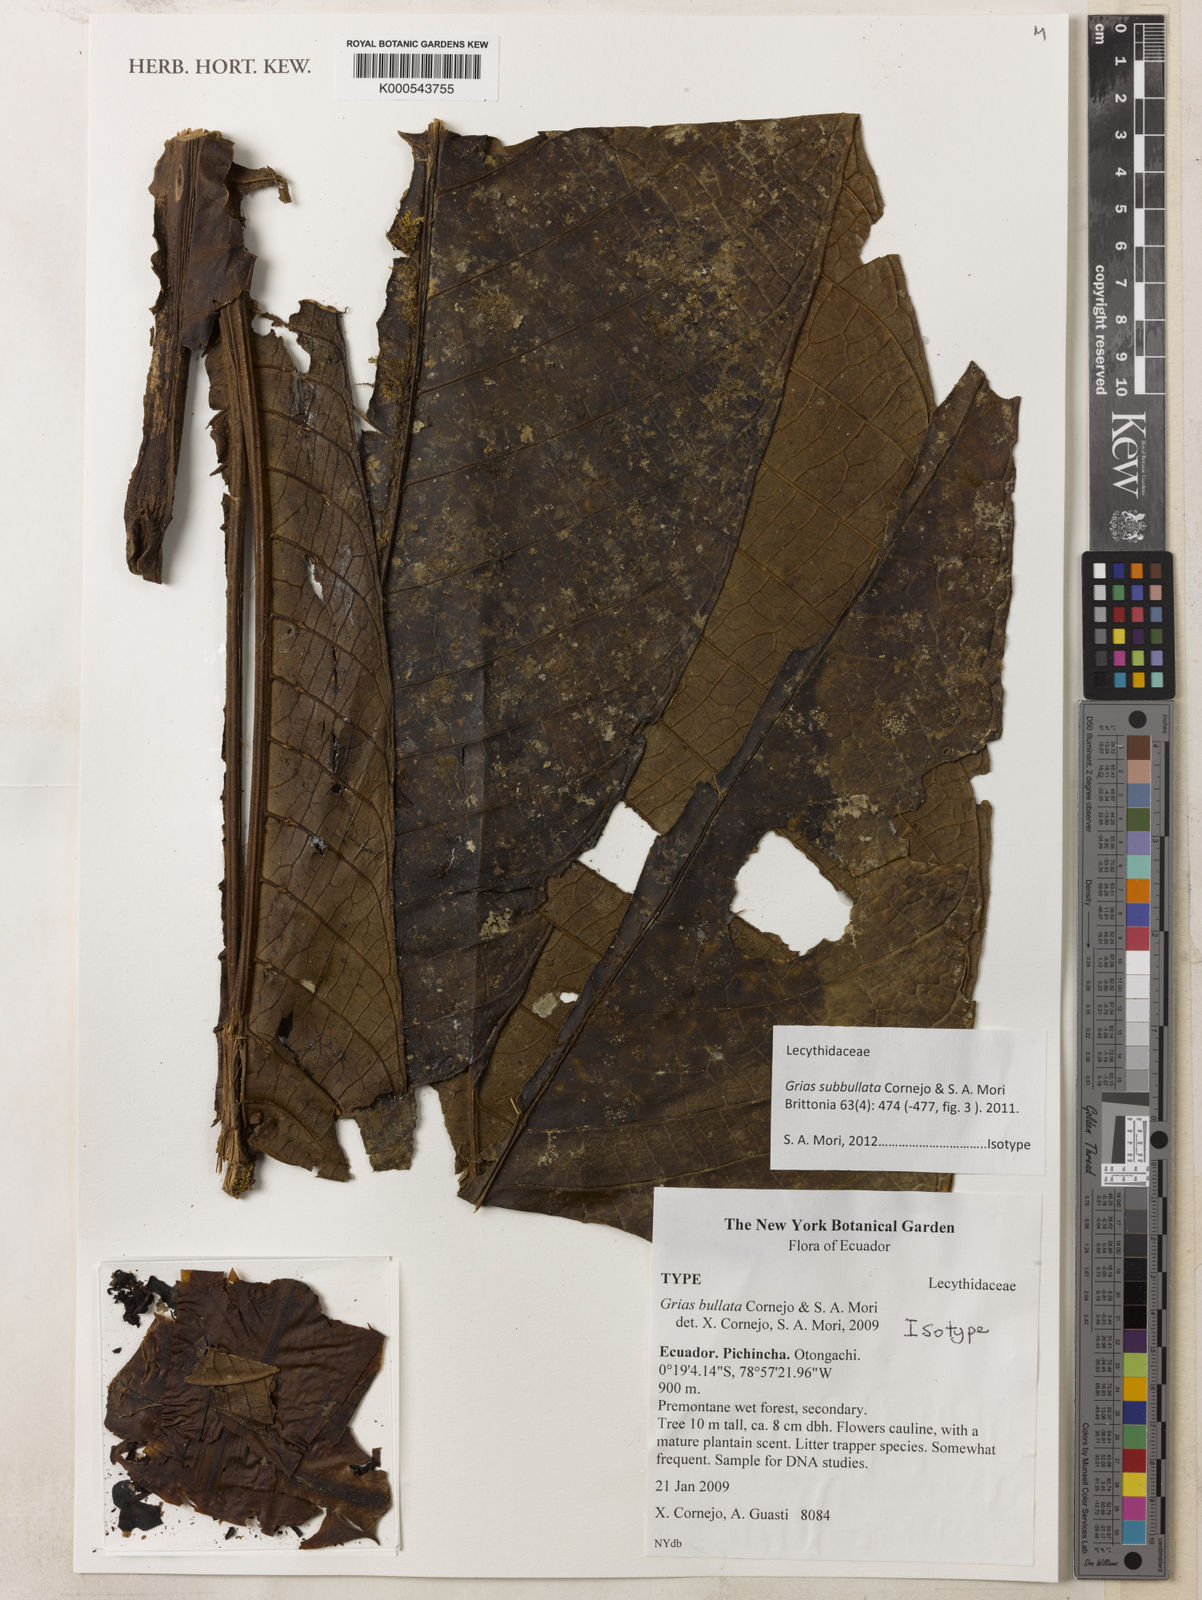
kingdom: Plantae
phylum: Tracheophyta
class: Magnoliopsida
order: Ericales
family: Lecythidaceae
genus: Grias
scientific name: Grias subbullata
